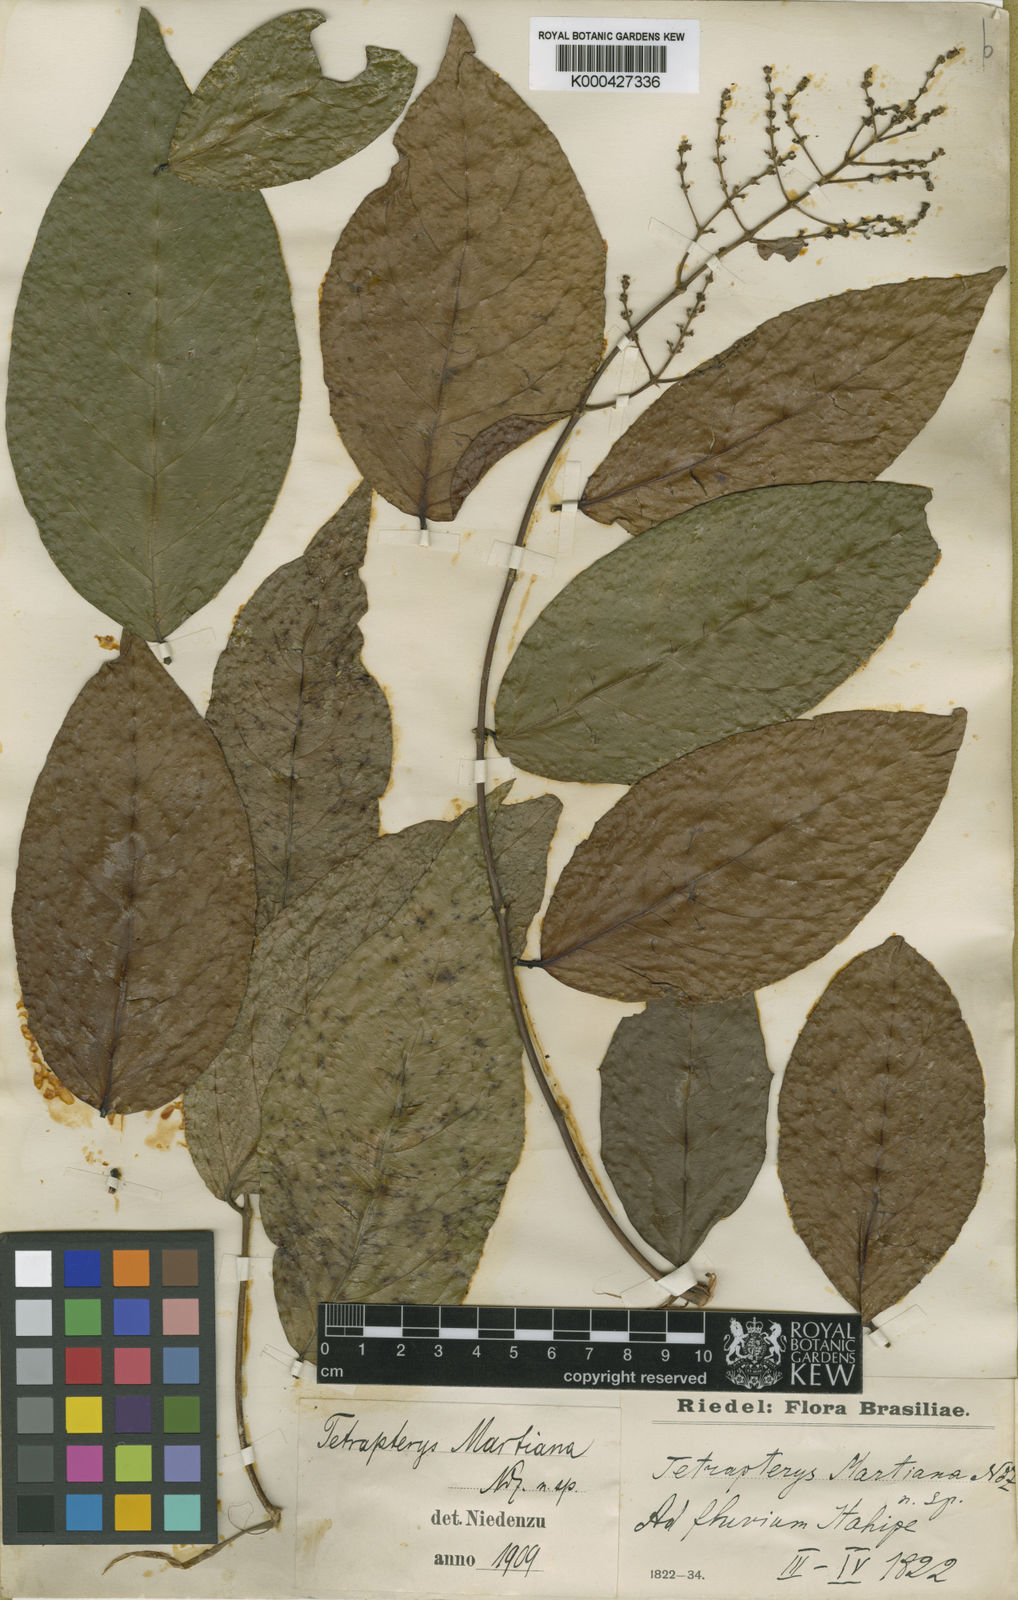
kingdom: Plantae
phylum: Tracheophyta
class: Magnoliopsida
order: Malpighiales
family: Malpighiaceae
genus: Niedenzuella
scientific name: Niedenzuella leucosepala
